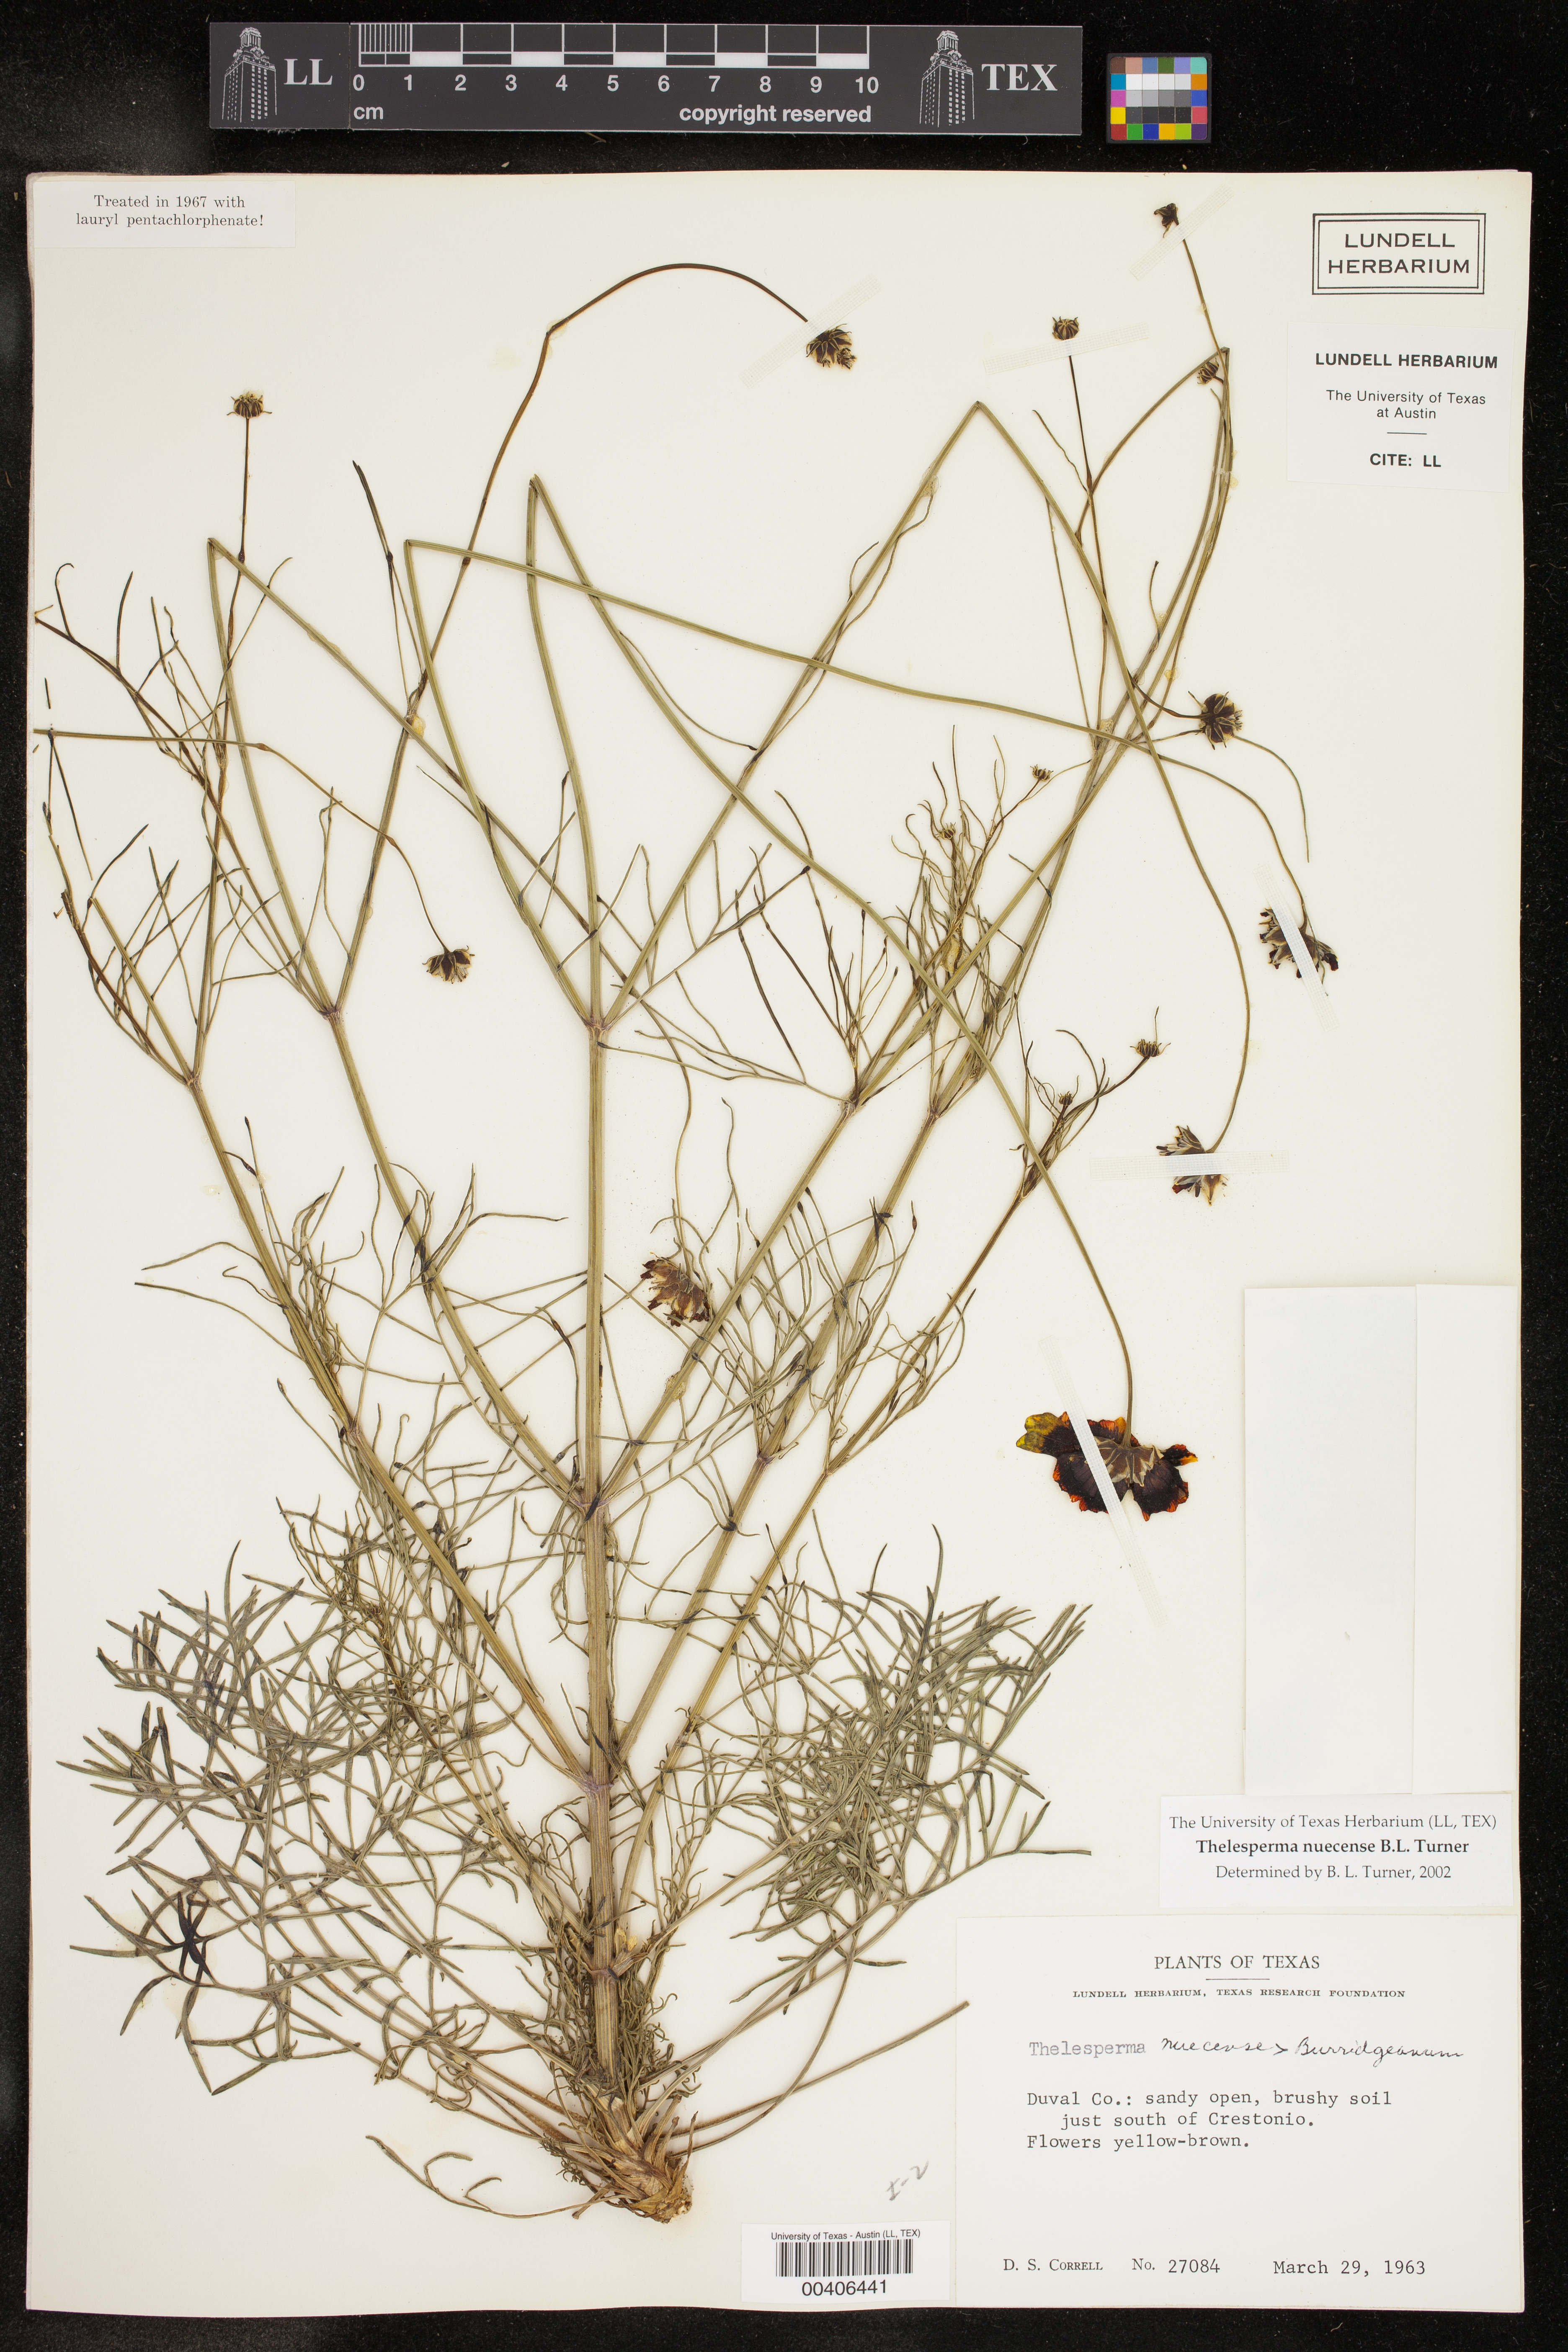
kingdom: Plantae
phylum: Tracheophyta
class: Magnoliopsida
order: Asterales
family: Asteraceae
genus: Thelesperma
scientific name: Thelesperma nuecense
